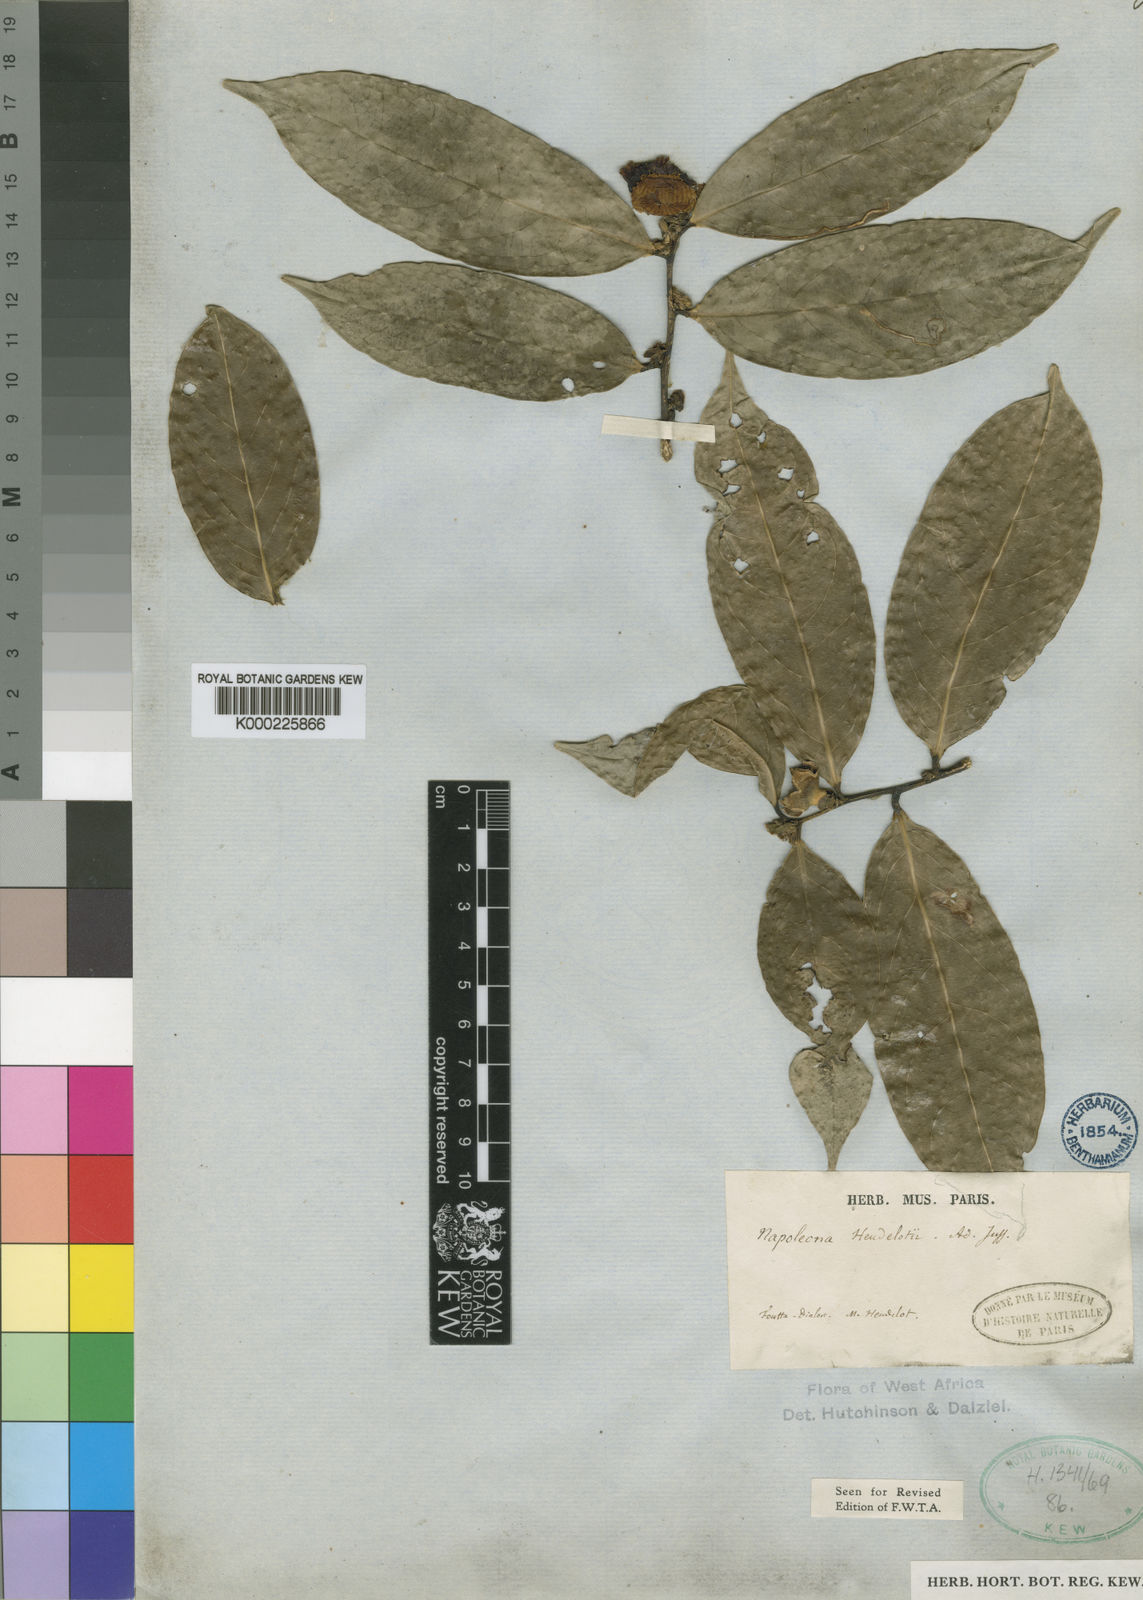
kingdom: Plantae
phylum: Tracheophyta
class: Magnoliopsida
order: Ericales
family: Lecythidaceae
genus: Napoleonaea
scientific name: Napoleonaea heudelotii
